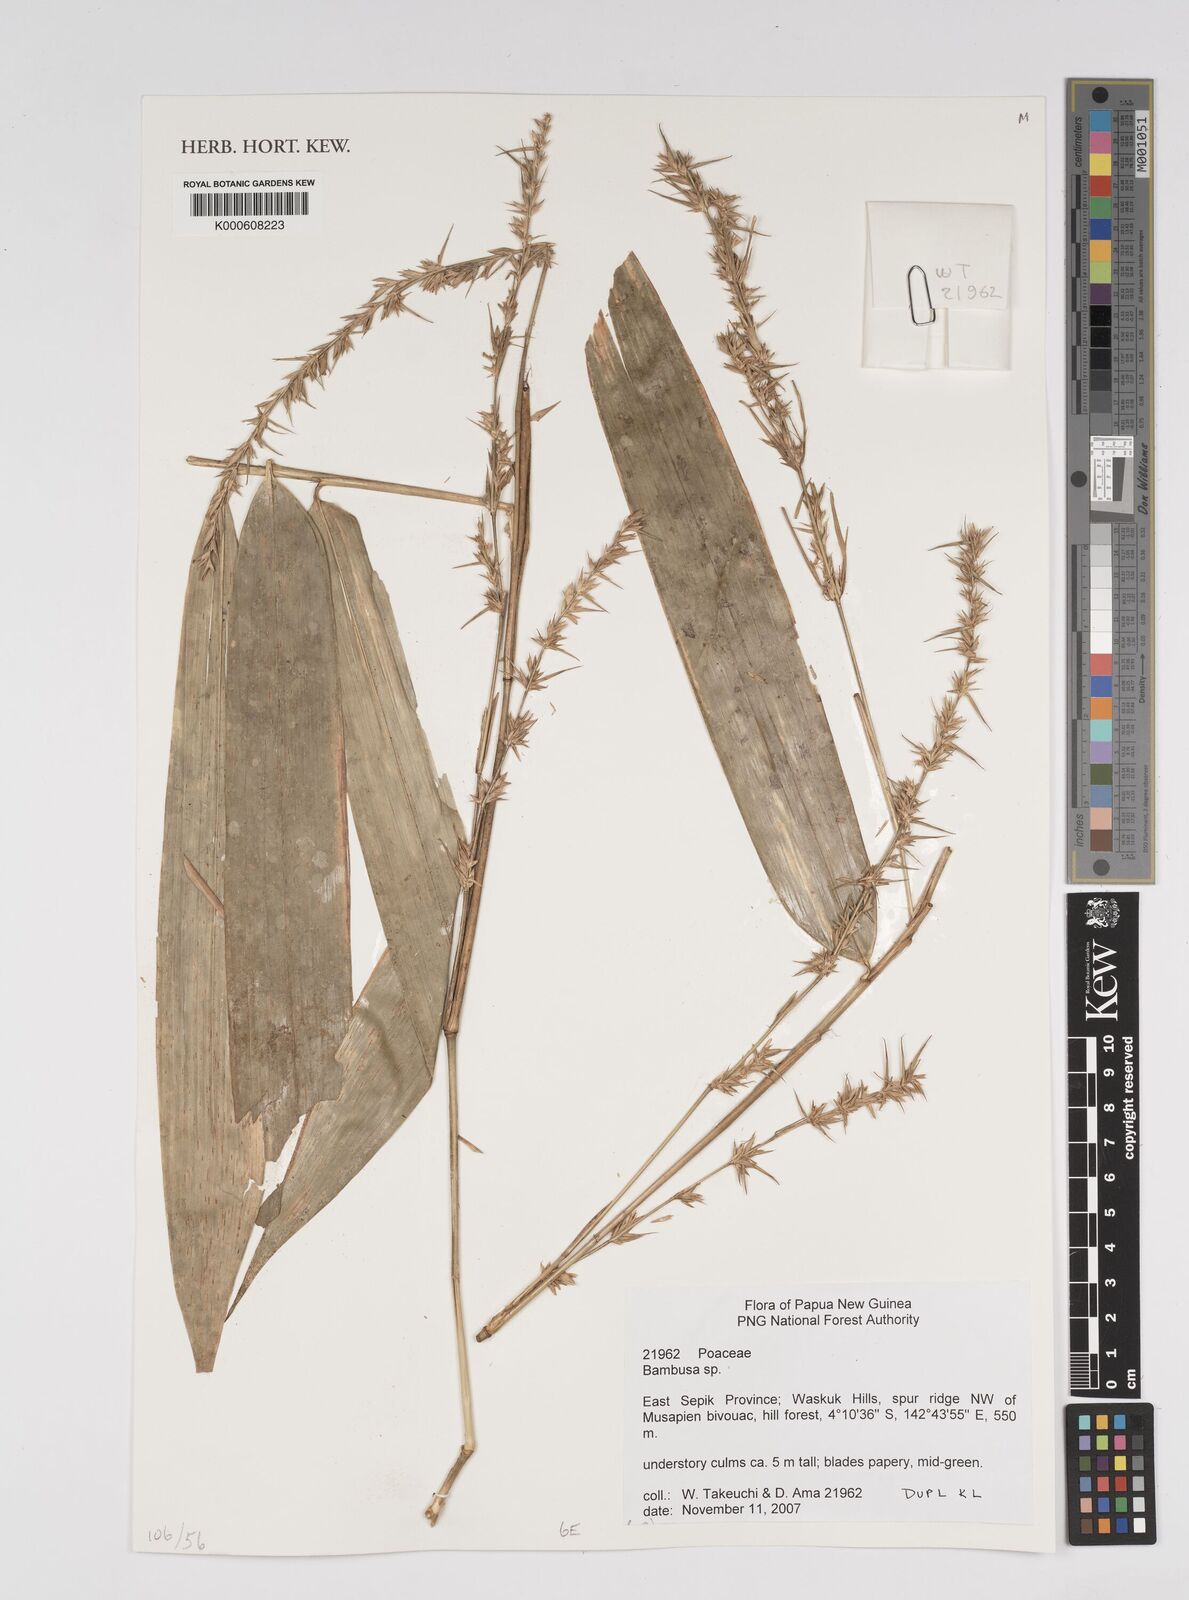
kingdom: Plantae
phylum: Tracheophyta
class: Liliopsida
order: Poales
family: Poaceae
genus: Bambusa
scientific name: Bambusa
